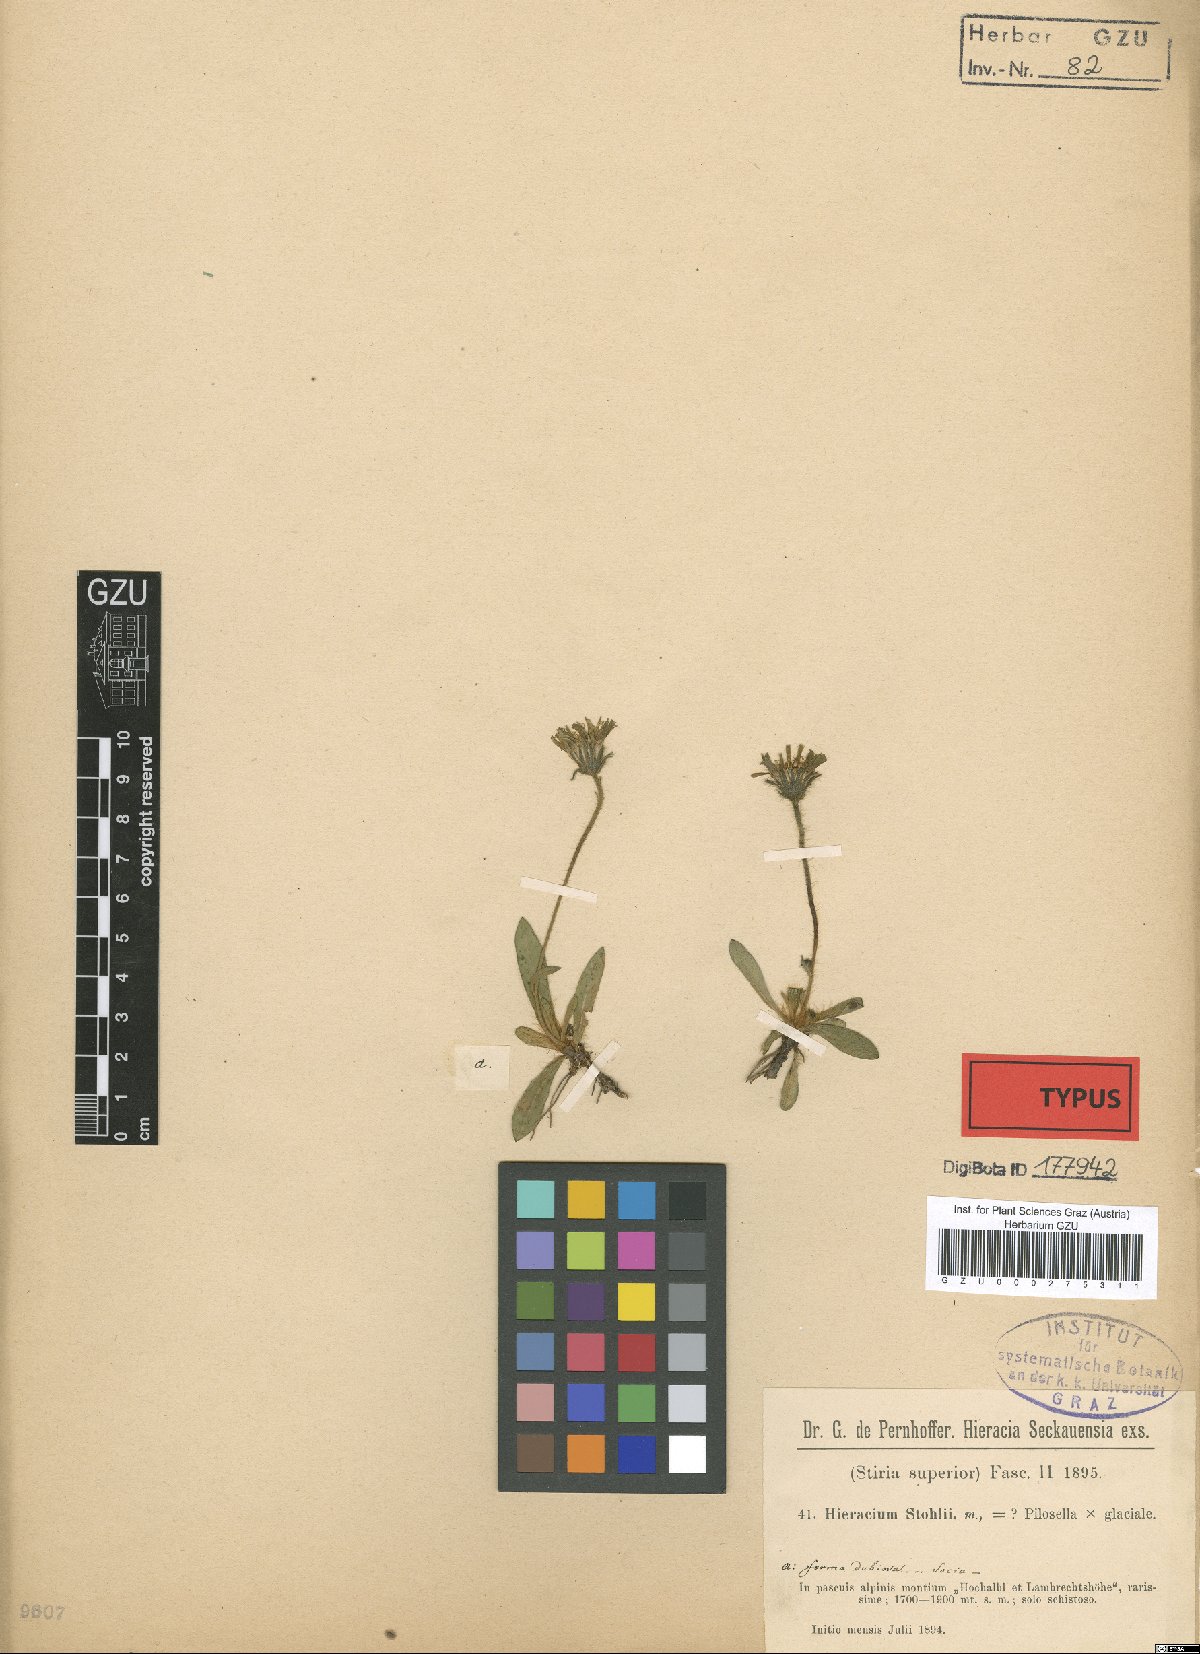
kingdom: Plantae
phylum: Tracheophyta
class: Magnoliopsida
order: Asterales
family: Asteraceae
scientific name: Asteraceae
